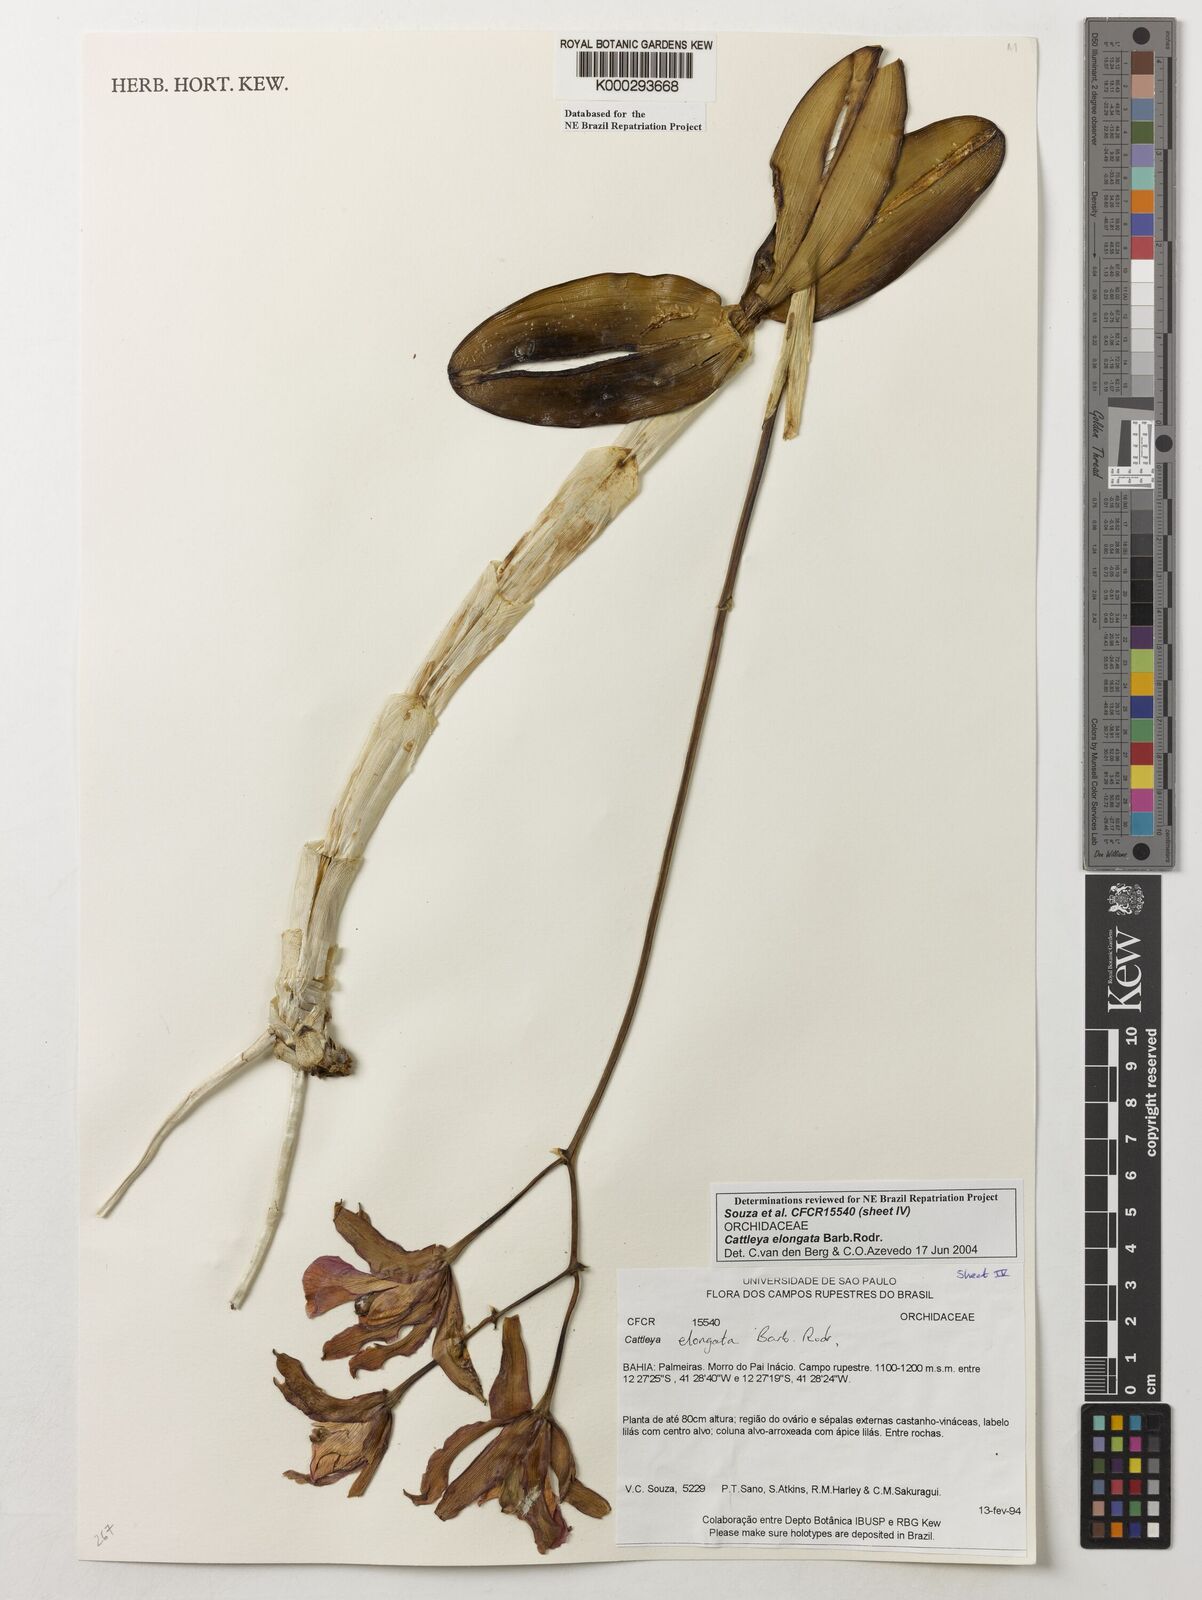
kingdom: Plantae
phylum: Tracheophyta
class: Liliopsida
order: Asparagales
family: Orchidaceae
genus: Cattleya
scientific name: Cattleya elongata
